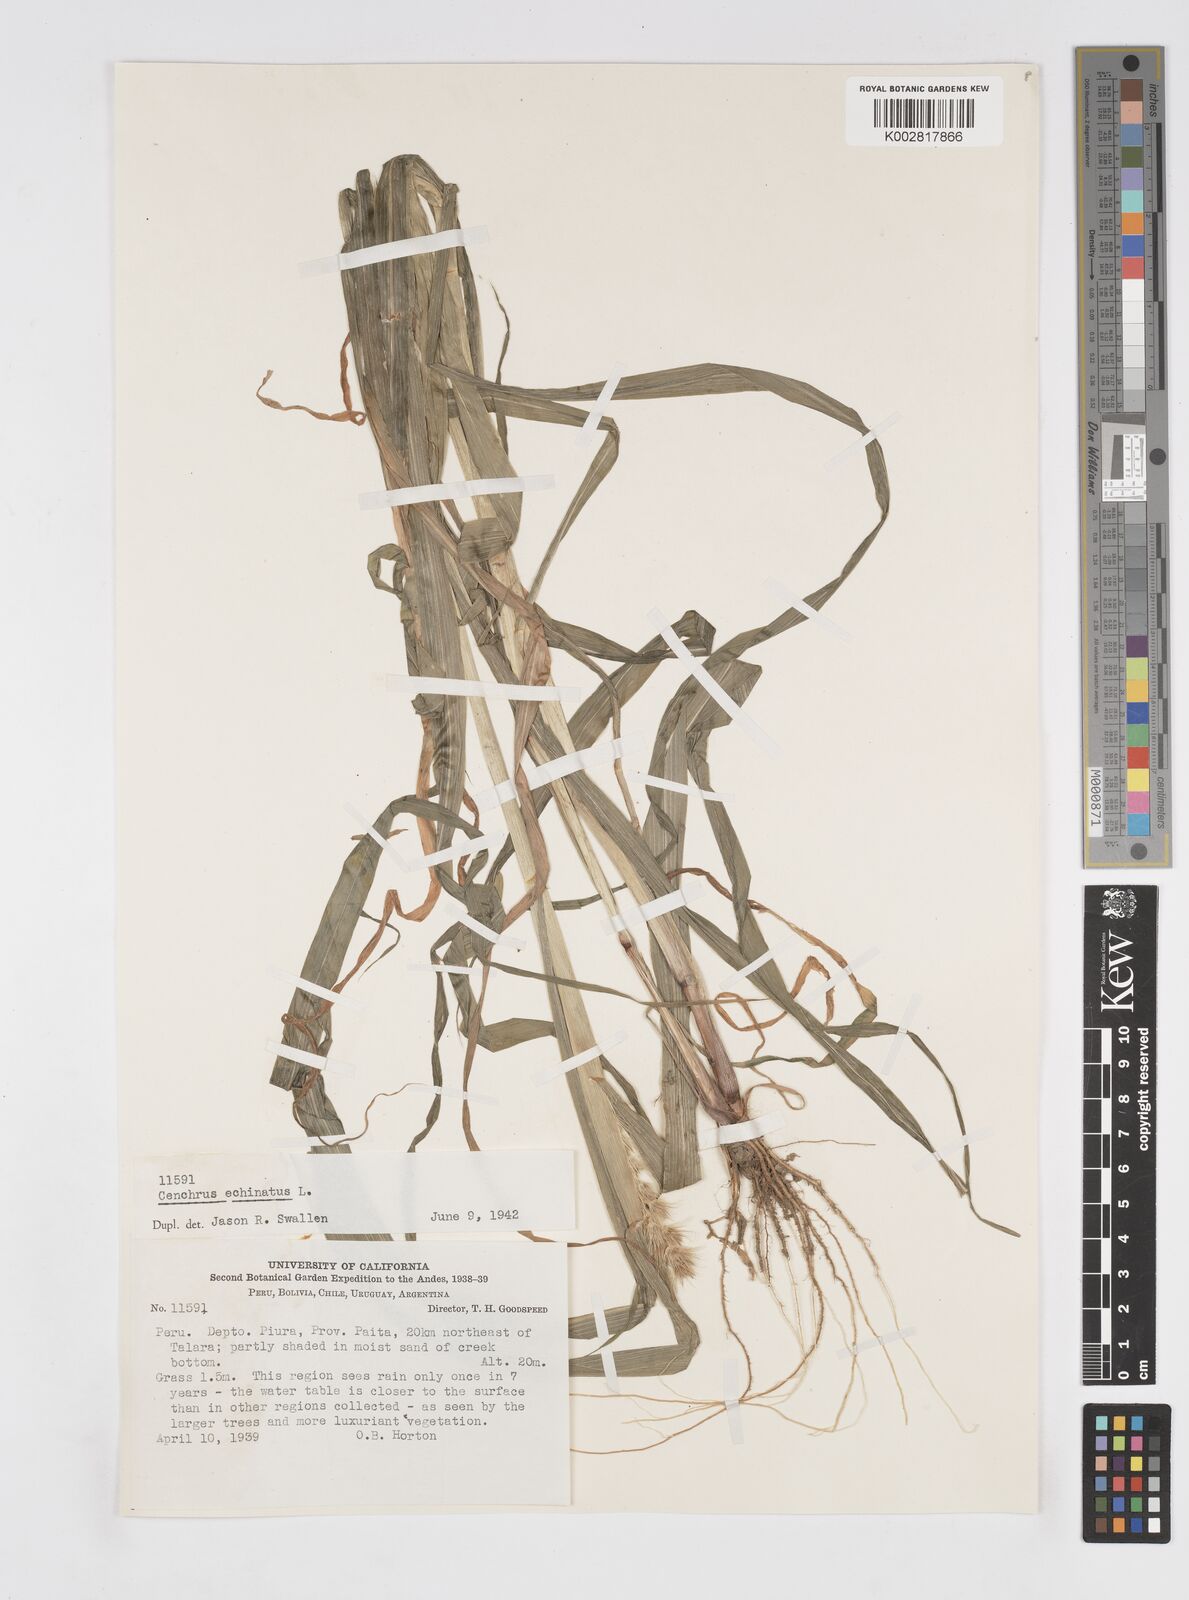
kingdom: Plantae
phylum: Tracheophyta
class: Liliopsida
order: Poales
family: Poaceae
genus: Cenchrus
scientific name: Cenchrus
